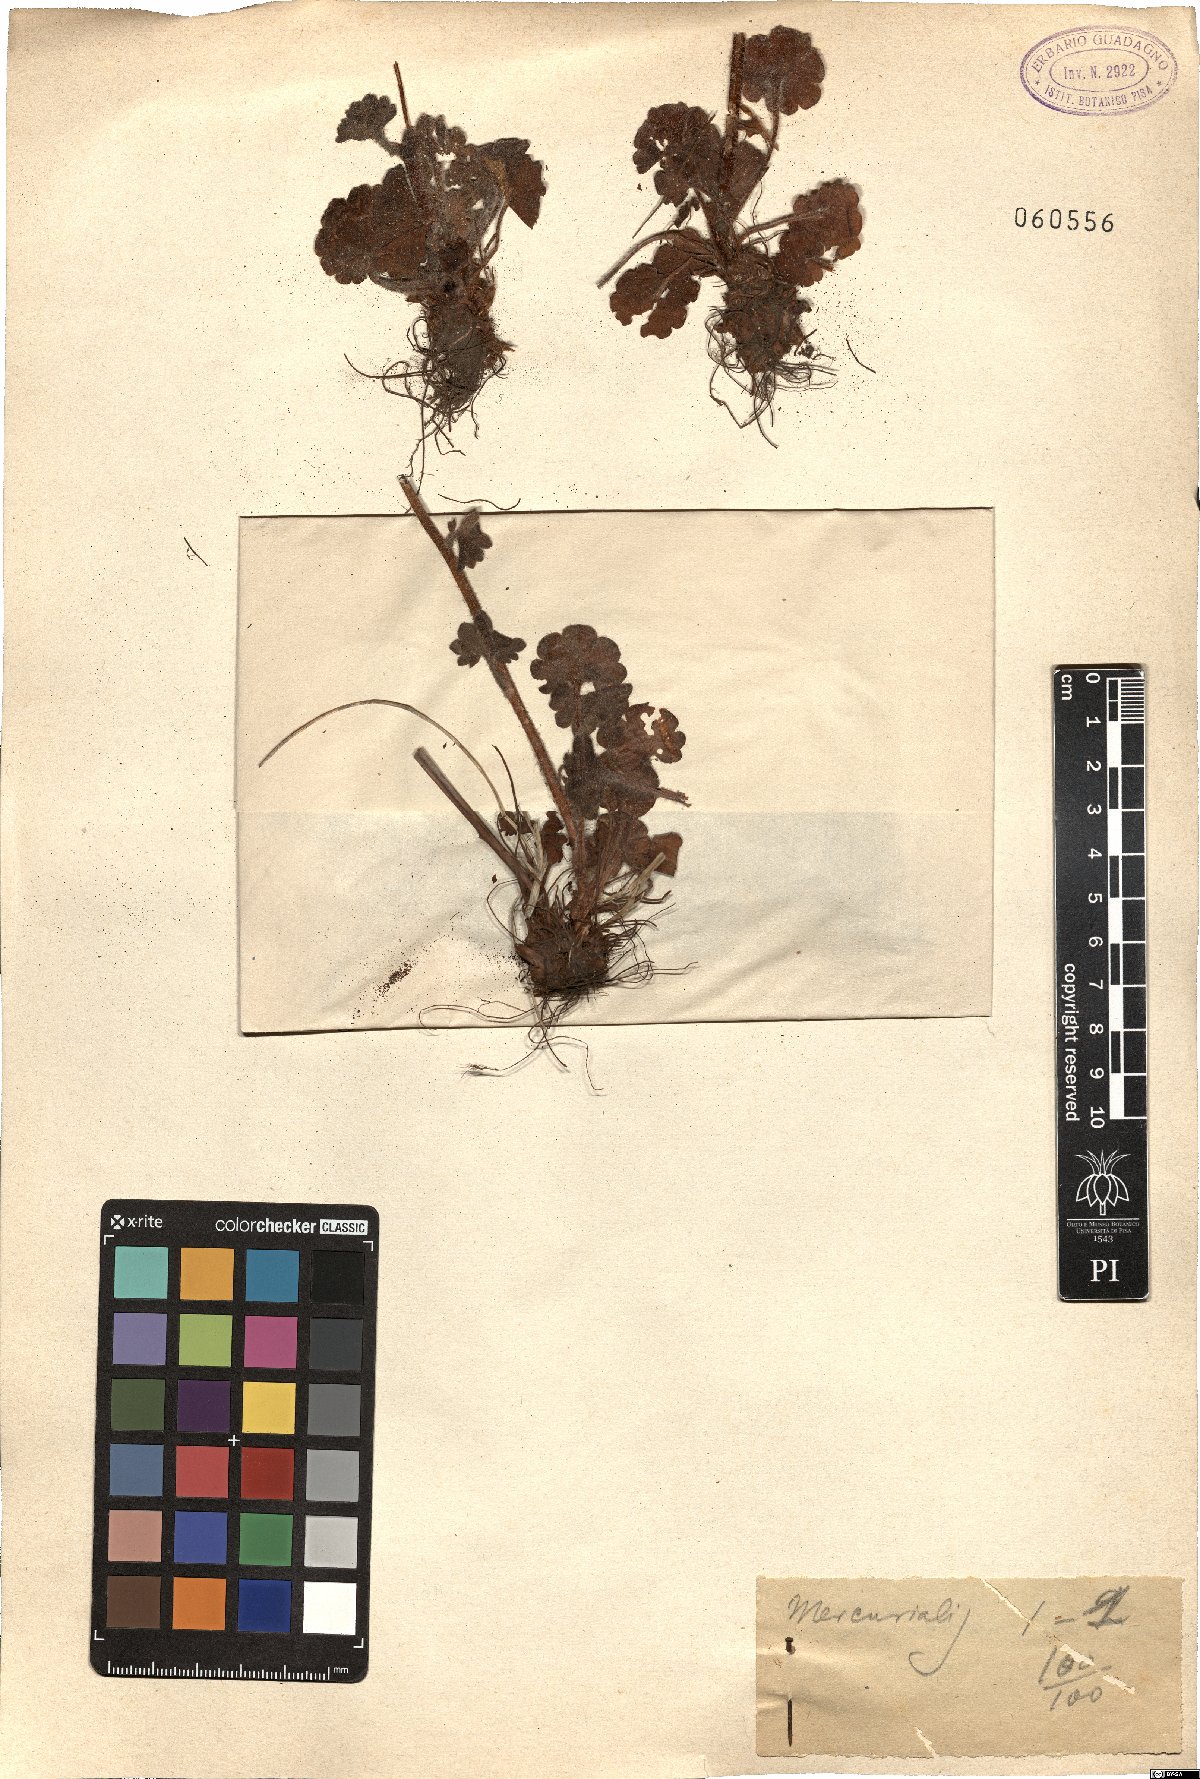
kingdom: Plantae
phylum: Tracheophyta
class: Magnoliopsida
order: Malpighiales
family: Euphorbiaceae
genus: Mercurialis
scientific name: Mercurialis
